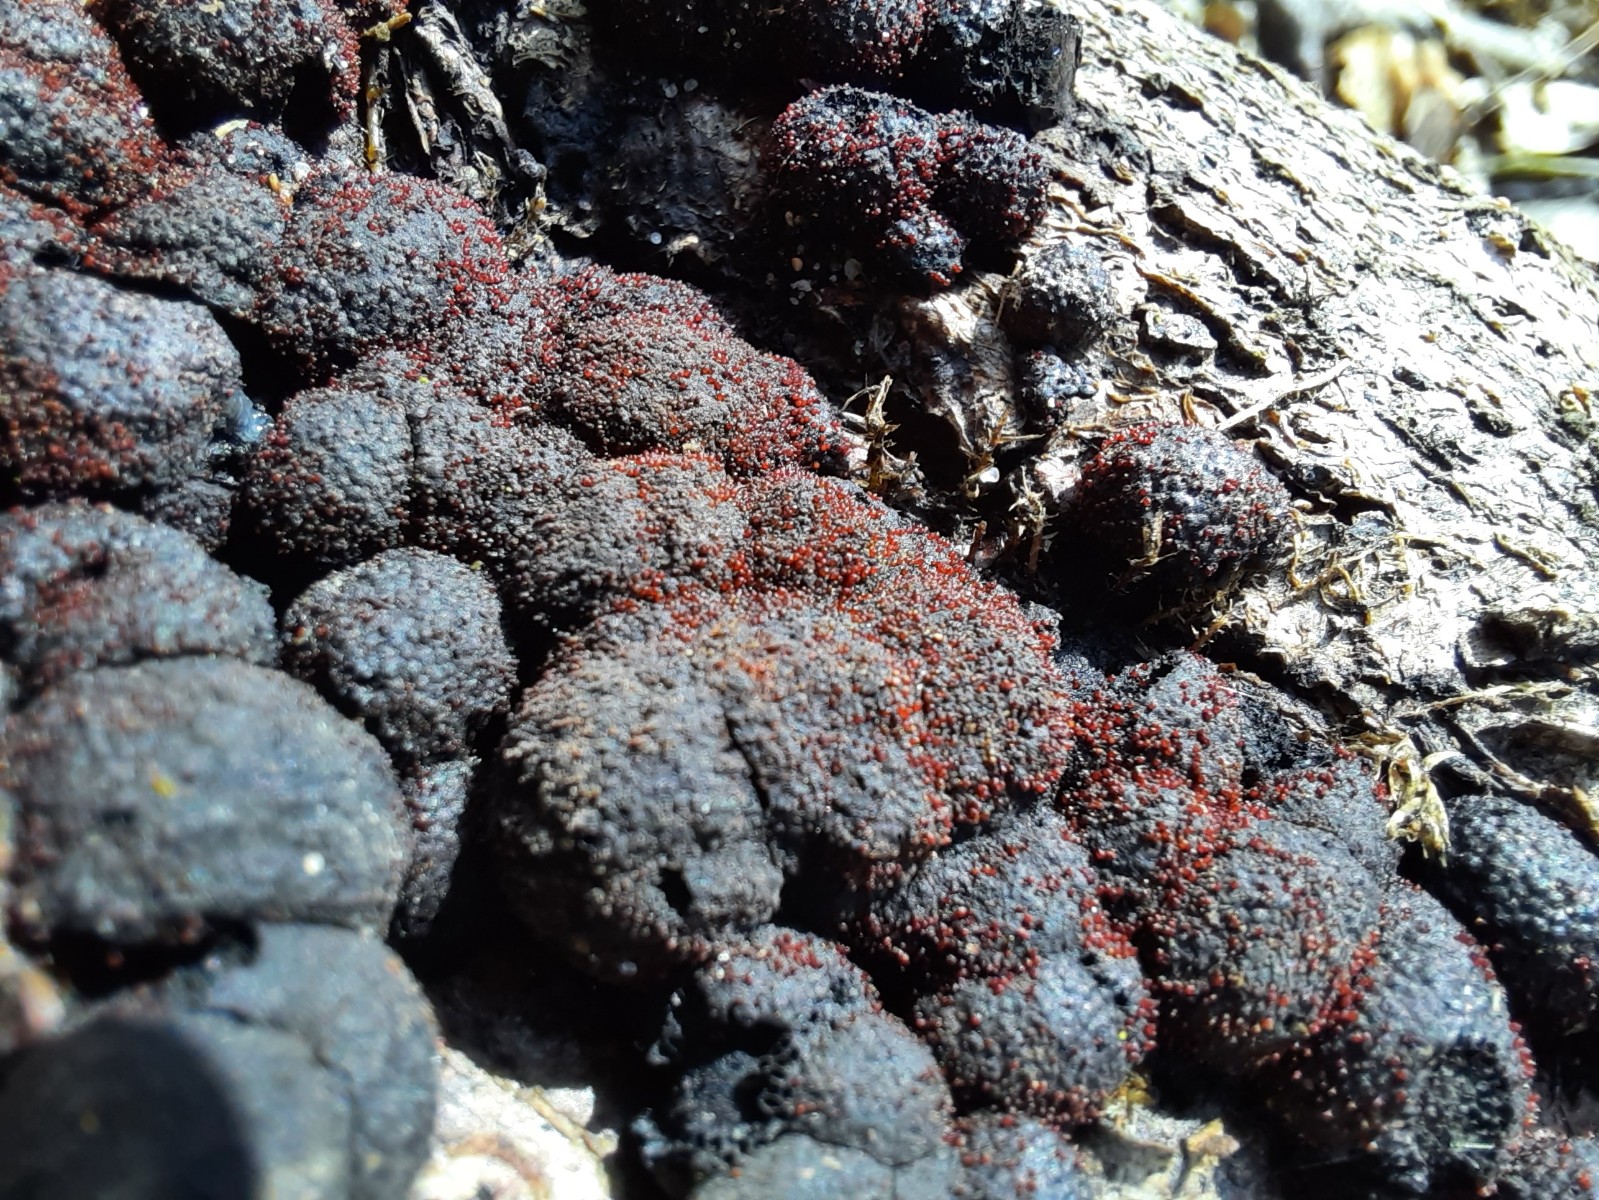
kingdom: Fungi
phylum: Ascomycota
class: Sordariomycetes
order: Hypocreales
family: Nectriaceae
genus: Cosmospora
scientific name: Cosmospora arxii
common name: kuljordbær-cinnobersvamp
